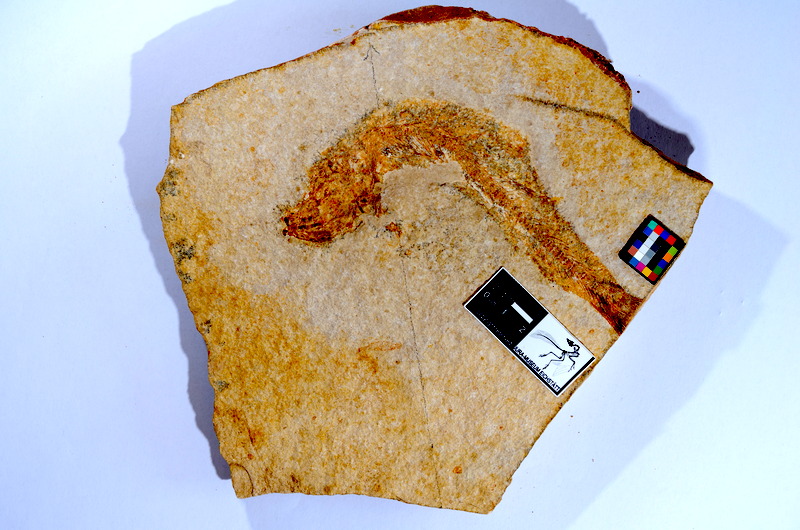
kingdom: Animalia
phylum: Chordata
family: Ascalaboidae
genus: Tharsis
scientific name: Tharsis dubius
